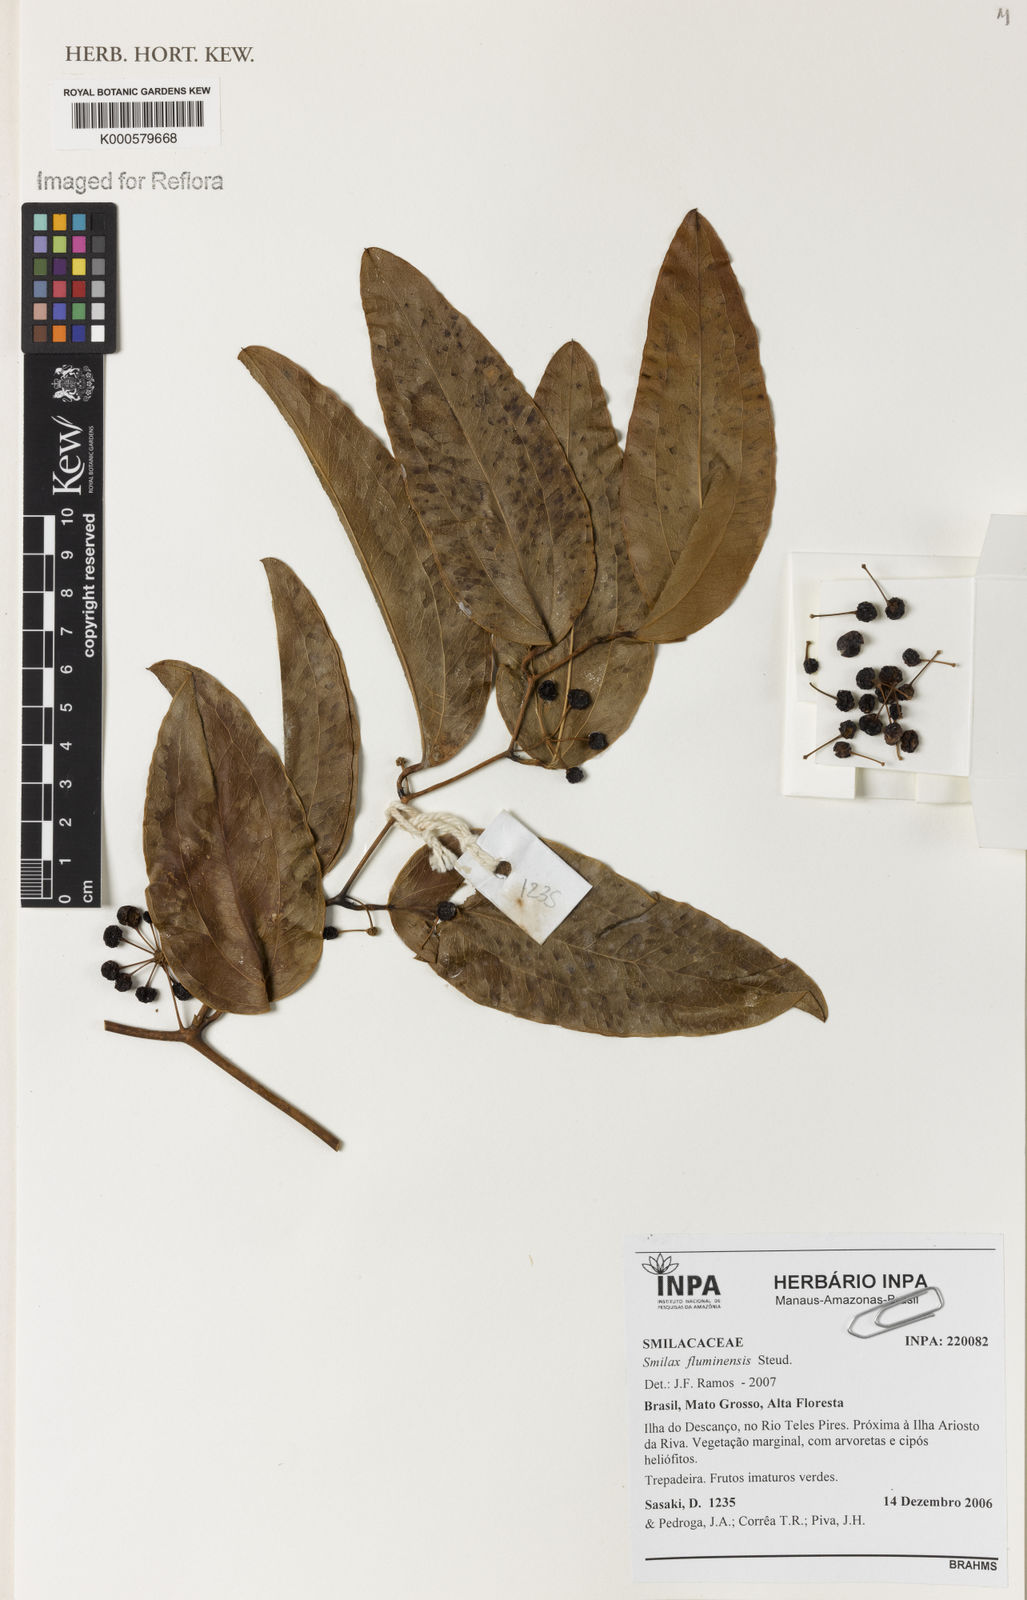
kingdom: Plantae
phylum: Tracheophyta
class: Liliopsida
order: Liliales
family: Smilacaceae
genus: Smilax
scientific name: Smilax fluminensis
